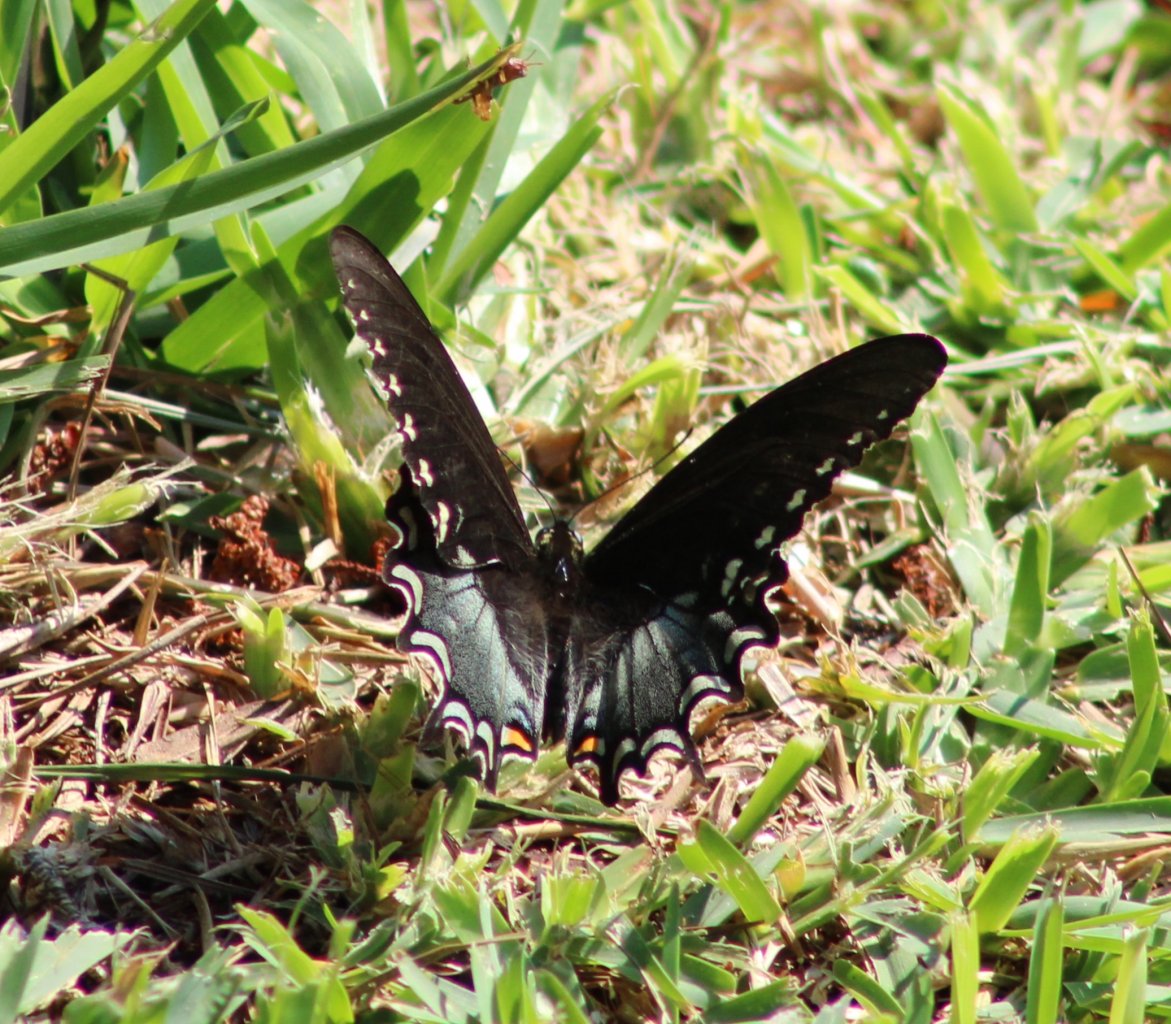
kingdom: Animalia
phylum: Arthropoda
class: Insecta
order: Lepidoptera
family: Papilionidae
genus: Pterourus
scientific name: Pterourus troilus
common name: Spicebush Swallowtail
